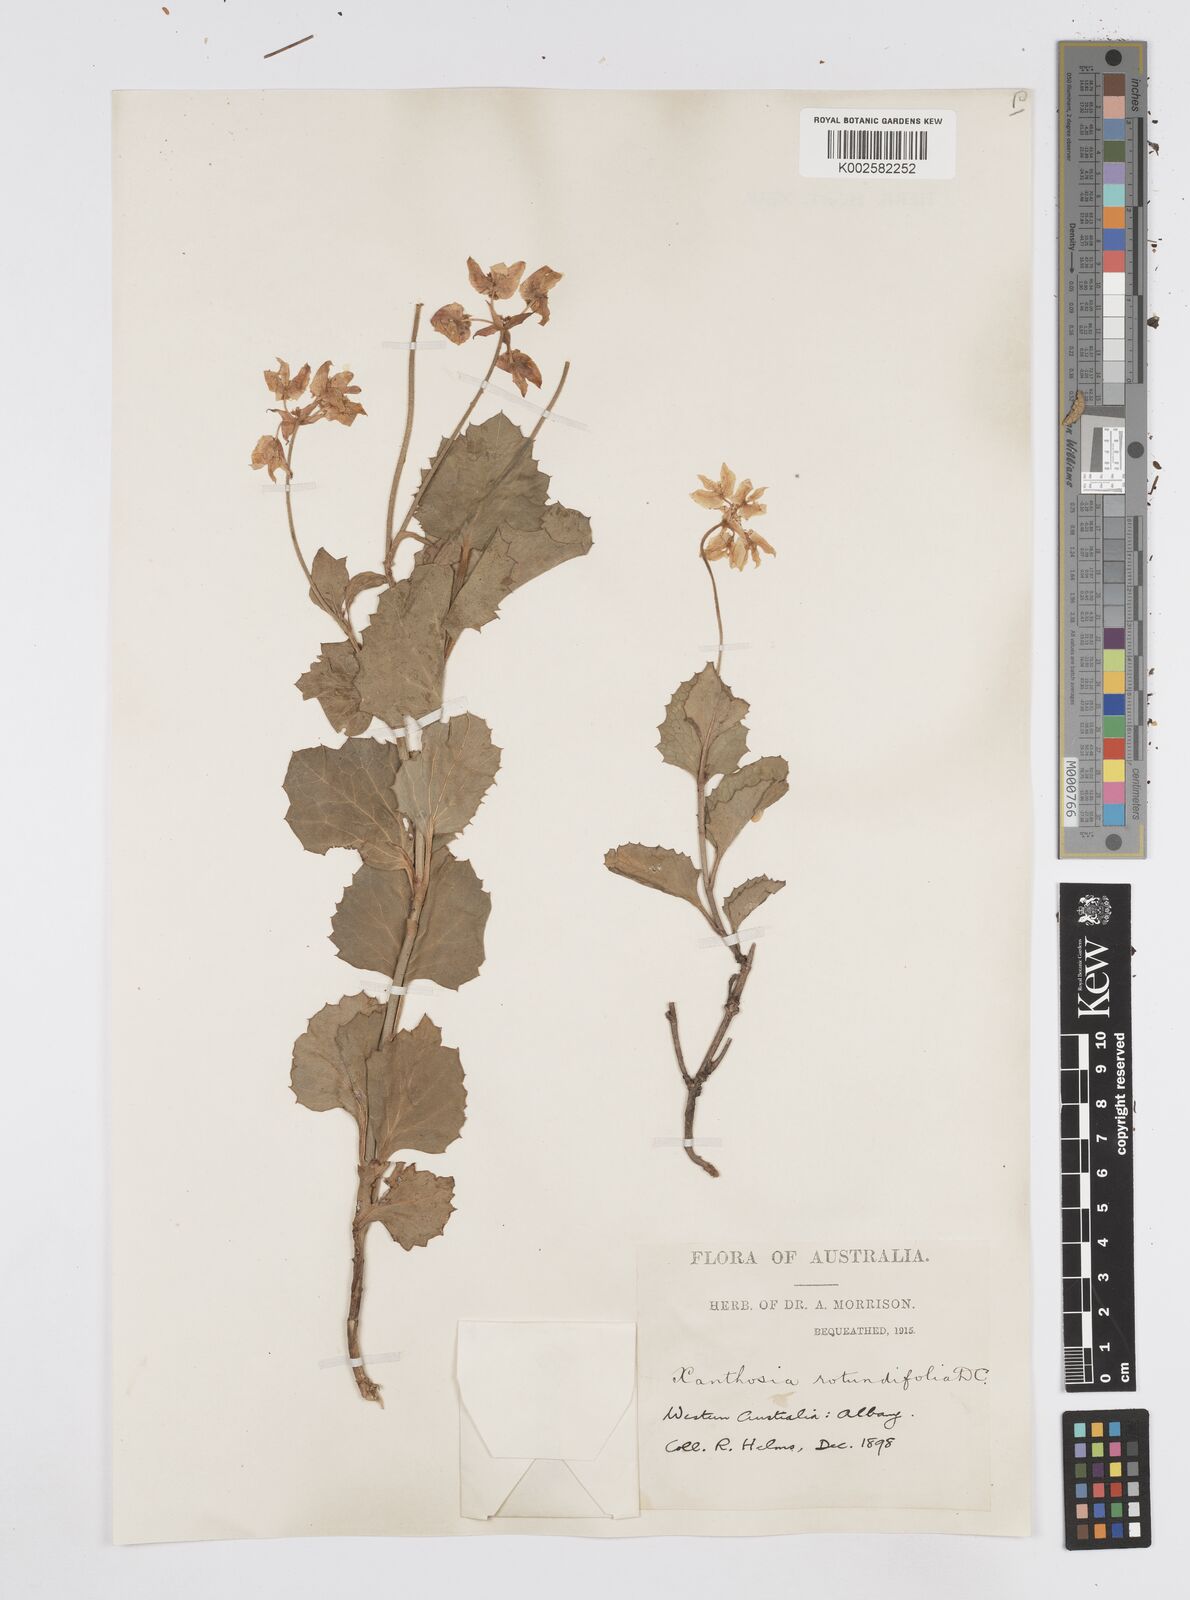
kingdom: Plantae
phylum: Tracheophyta
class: Magnoliopsida
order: Apiales
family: Apiaceae
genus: Xanthosia
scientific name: Xanthosia rotundifolia
